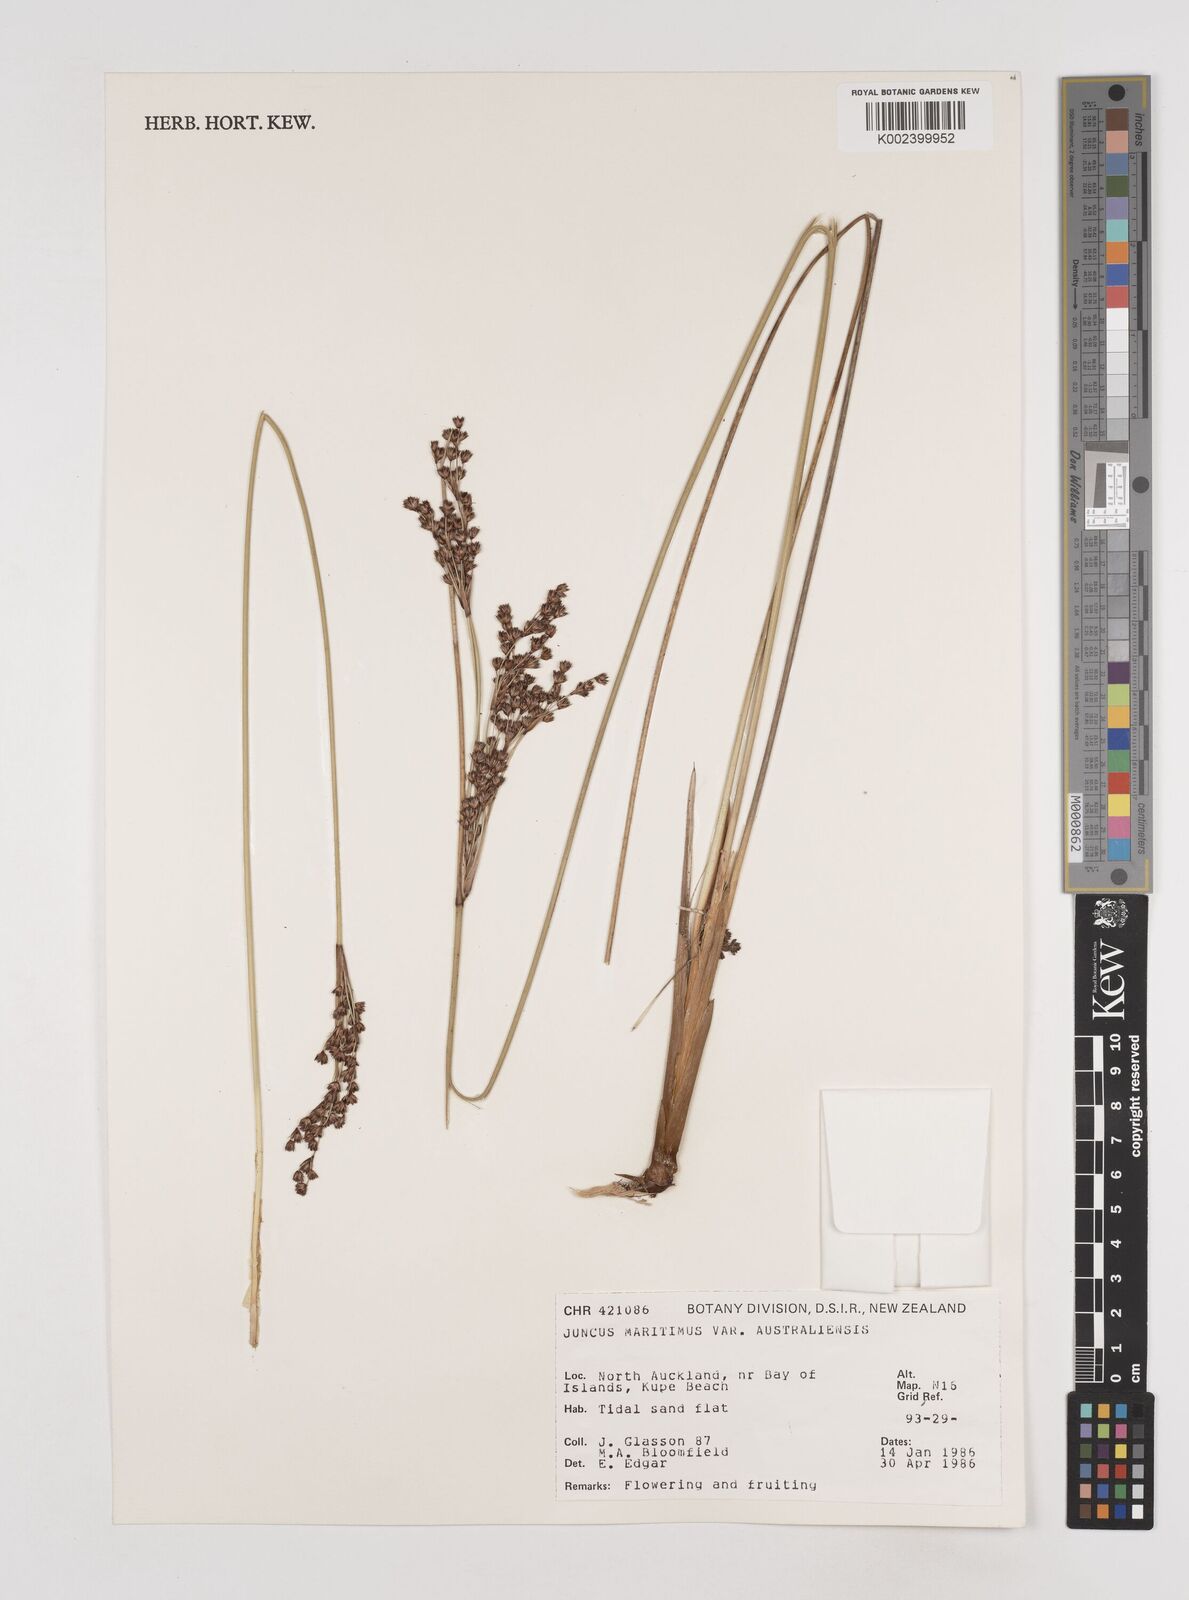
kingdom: Plantae
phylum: Tracheophyta
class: Liliopsida
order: Poales
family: Juncaceae
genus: Juncus
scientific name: Juncus kraussii
